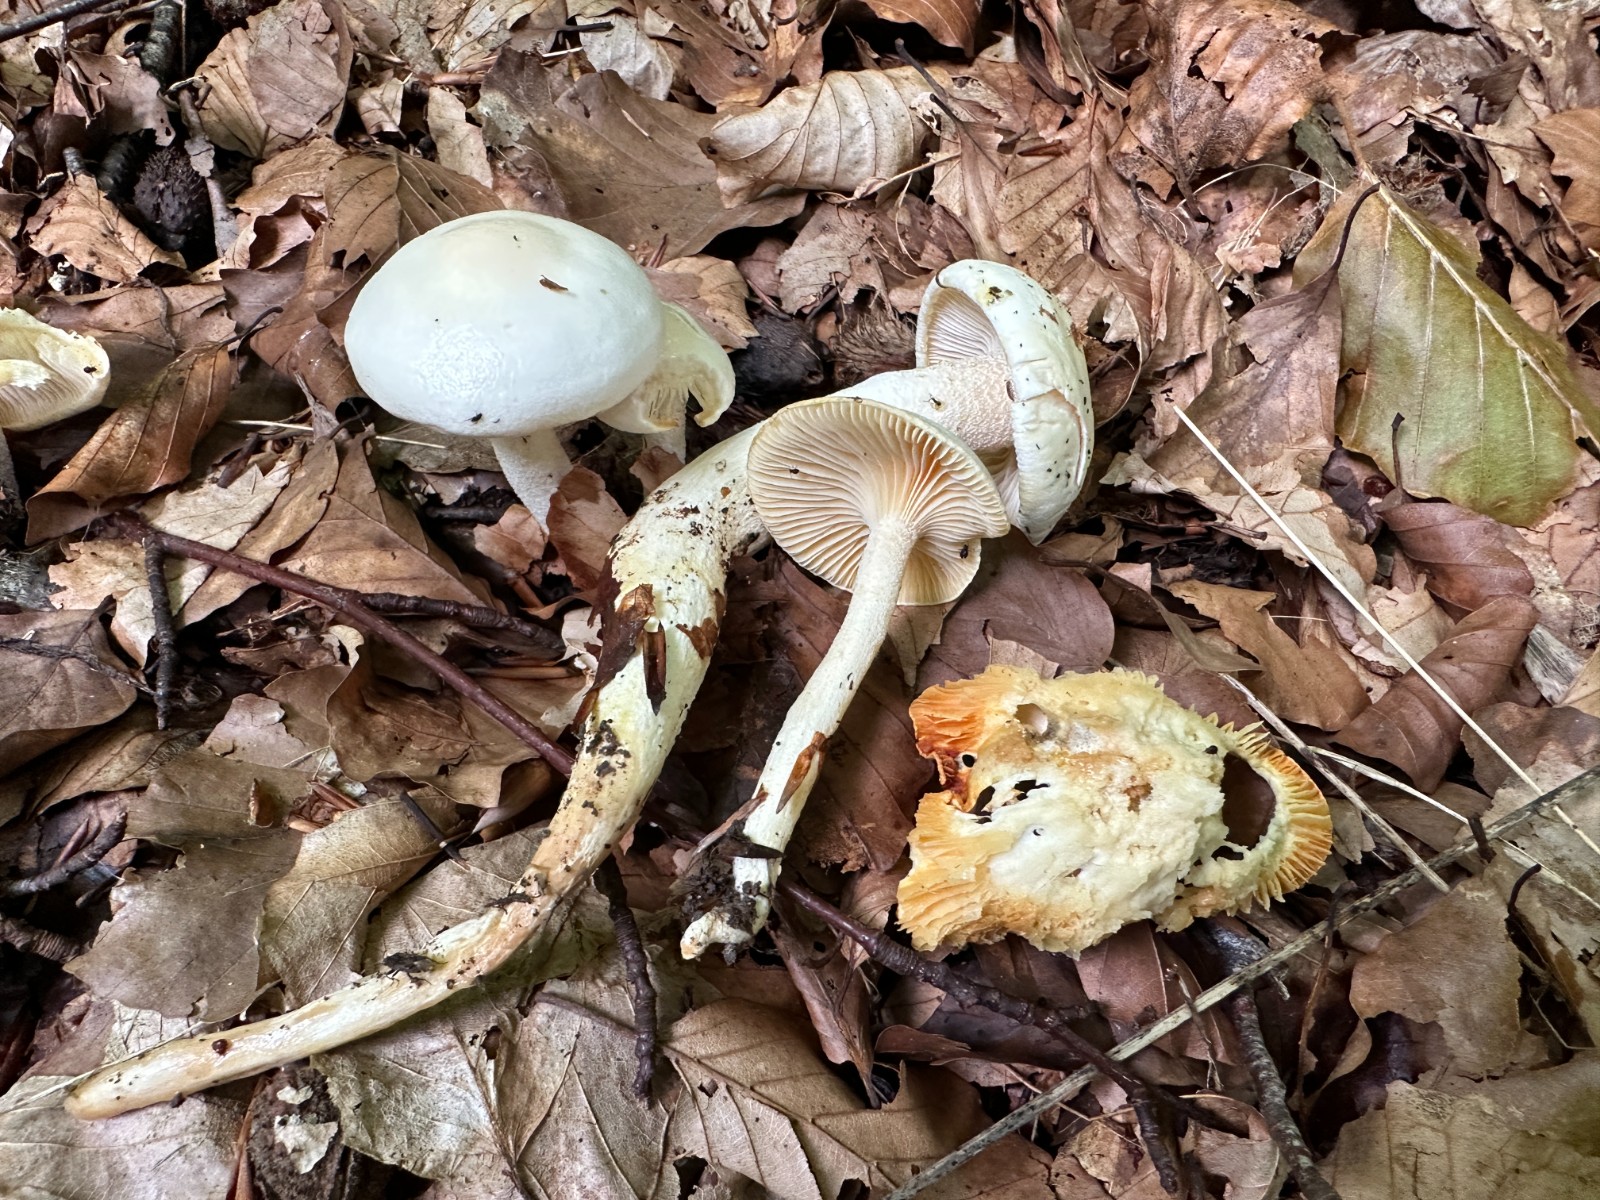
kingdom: Fungi
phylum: Basidiomycota
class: Agaricomycetes
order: Agaricales
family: Hygrophoraceae
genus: Hygrophorus
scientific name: Hygrophorus discoxanthus
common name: ildelugtende sneglehat
